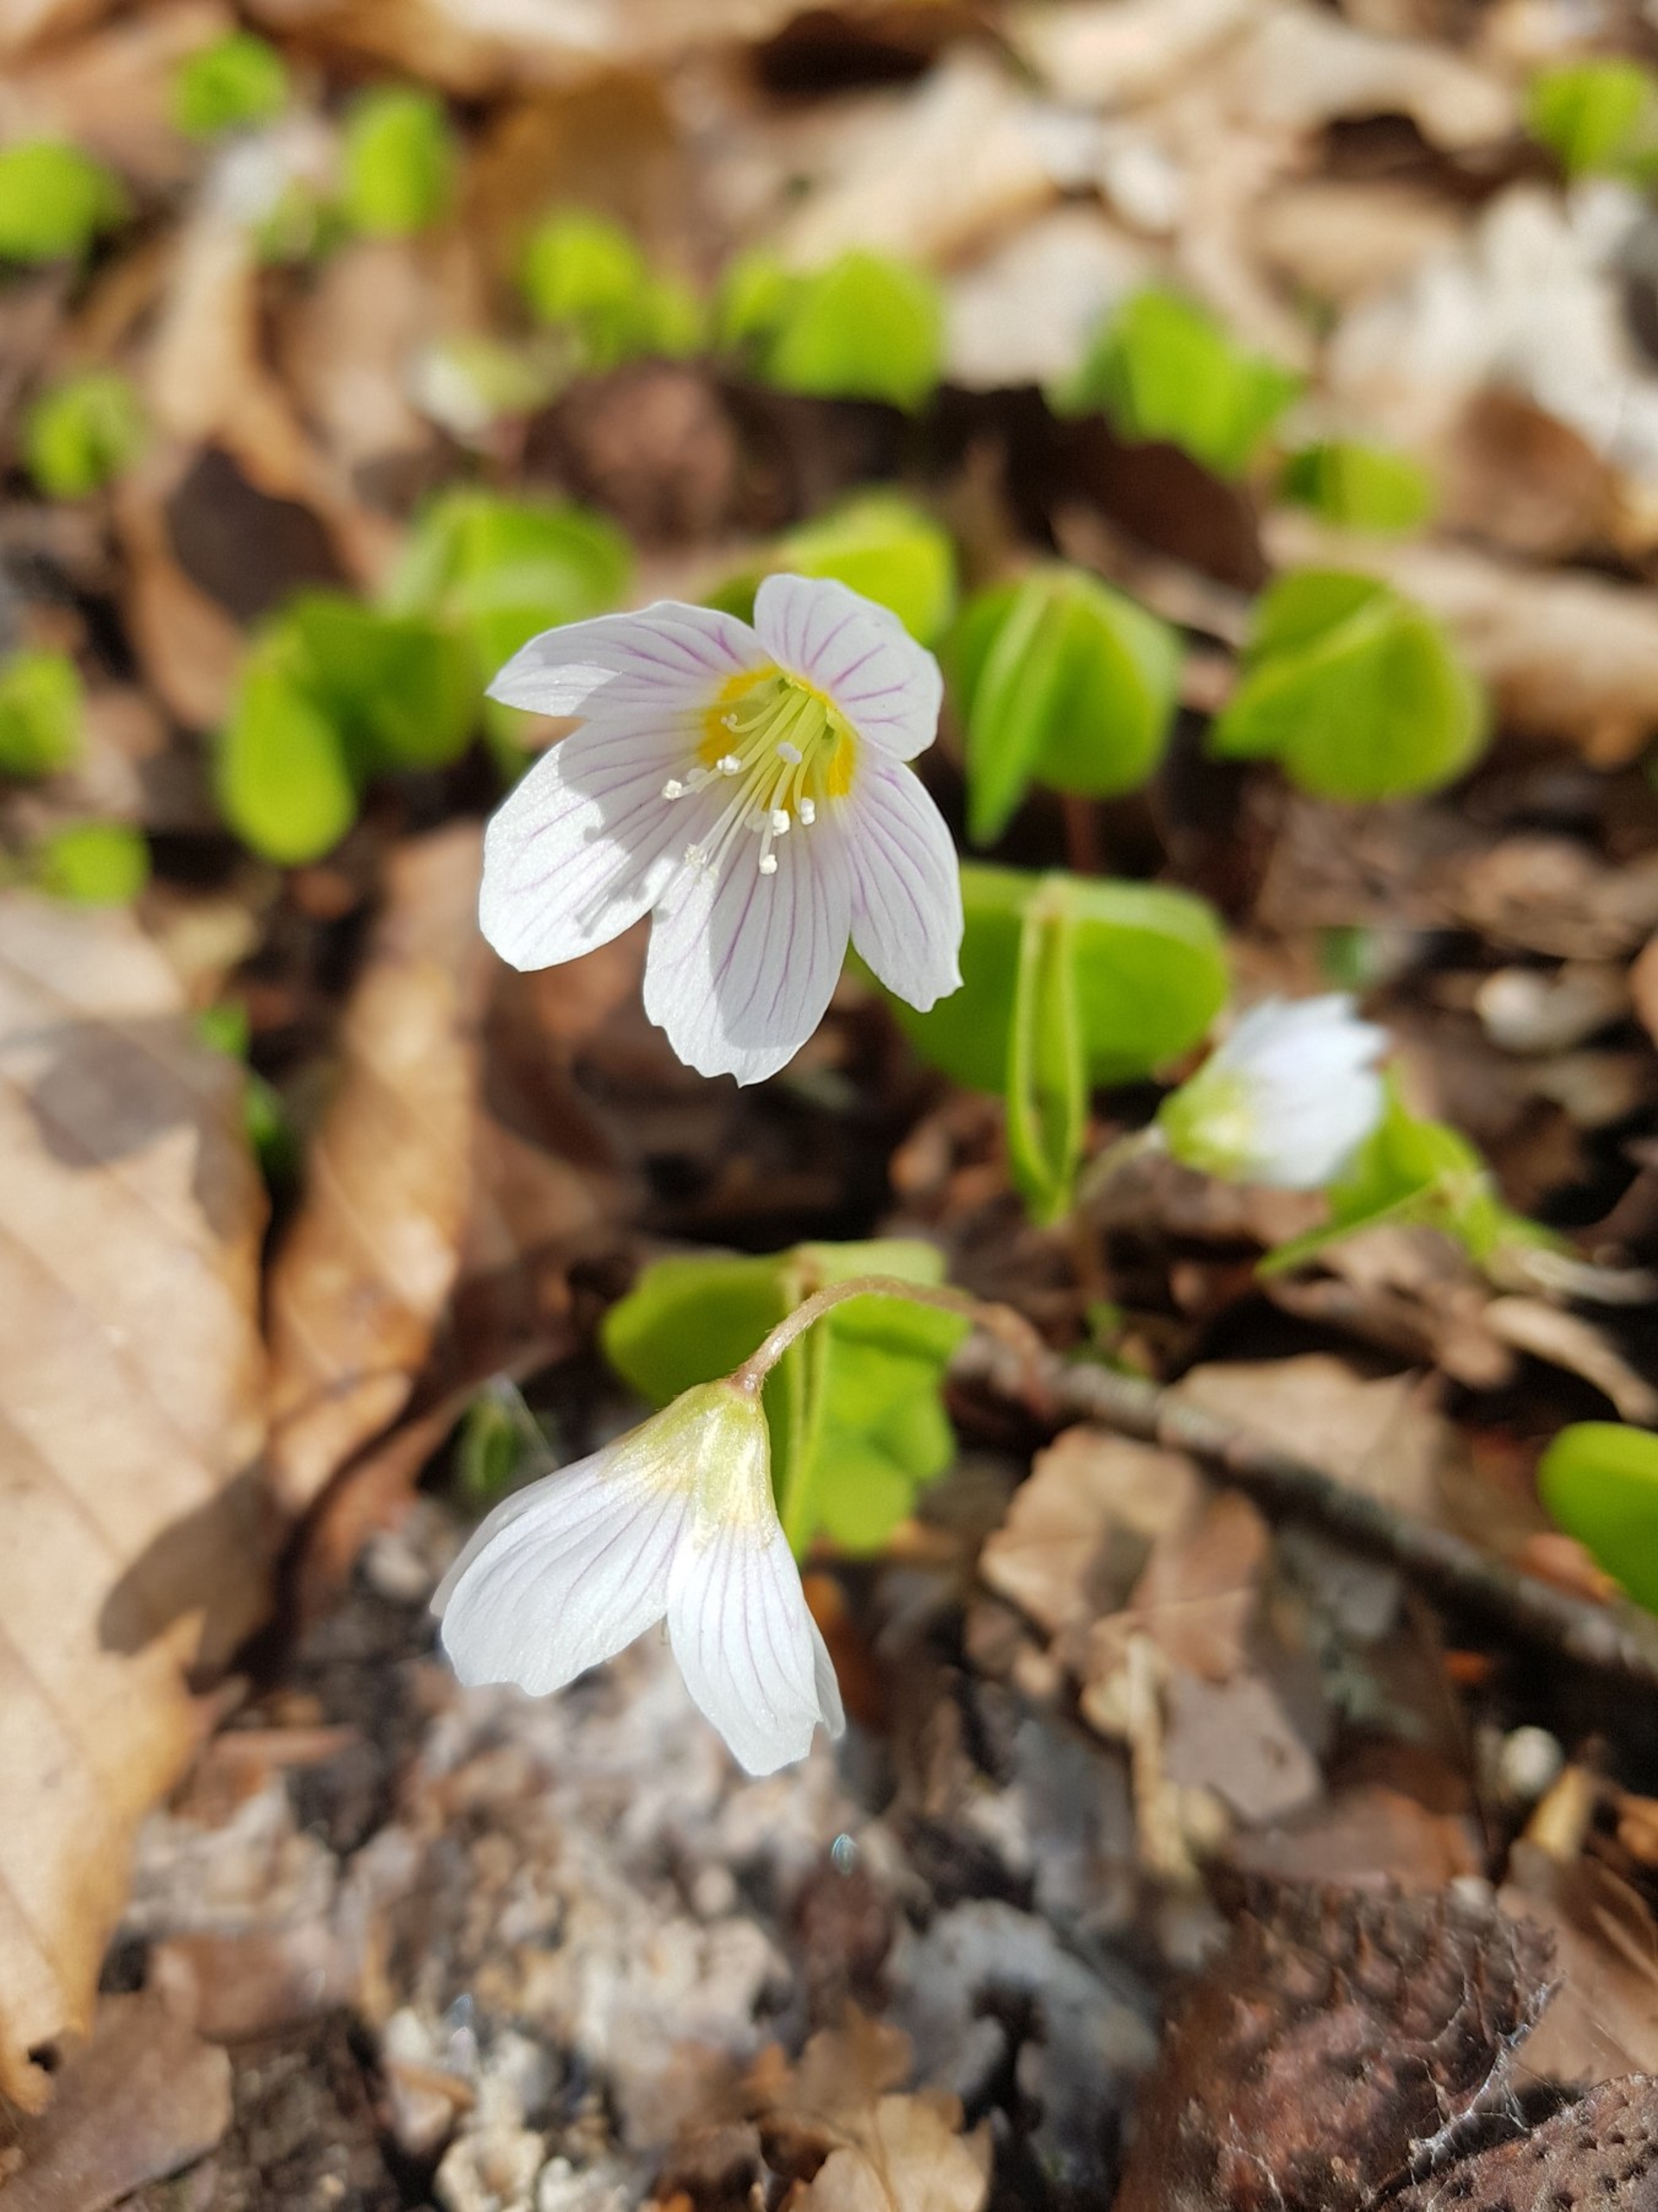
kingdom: Plantae
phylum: Tracheophyta
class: Magnoliopsida
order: Oxalidales
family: Oxalidaceae
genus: Oxalis
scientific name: Oxalis acetosella
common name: Skovsyre
